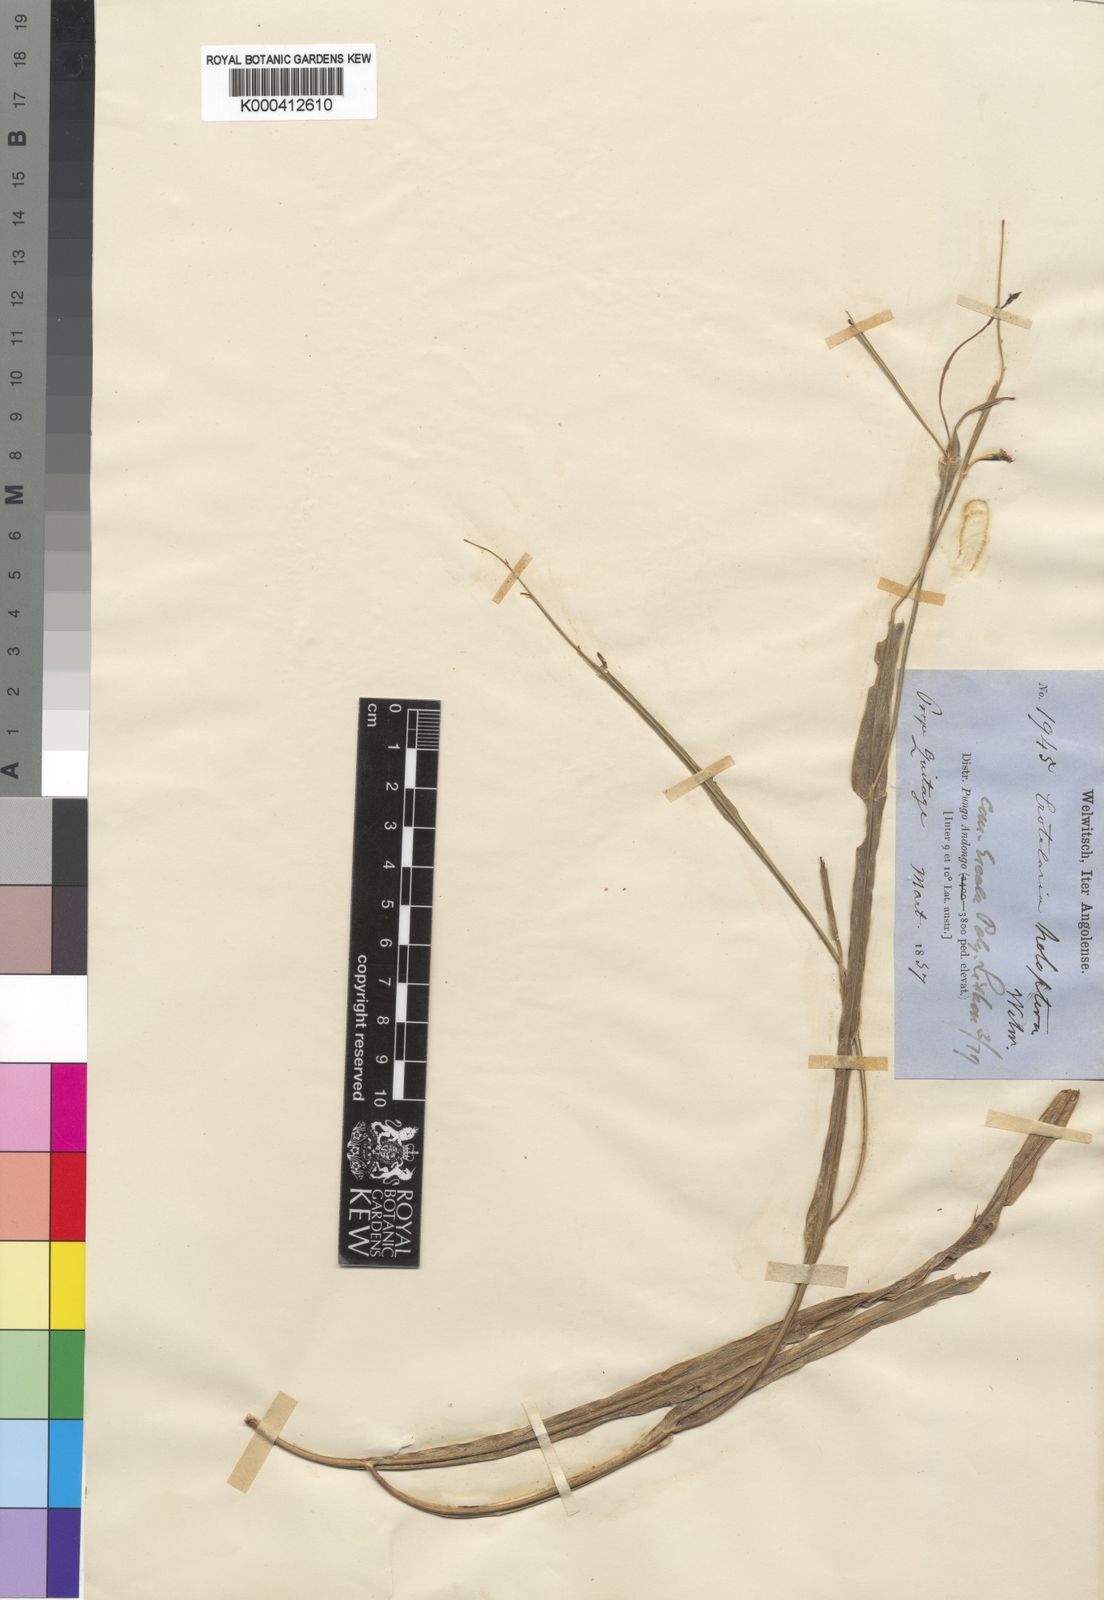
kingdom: Plantae
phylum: Tracheophyta
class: Magnoliopsida
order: Fabales
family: Fabaceae
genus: Crotalaria
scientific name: Crotalaria holoptera
